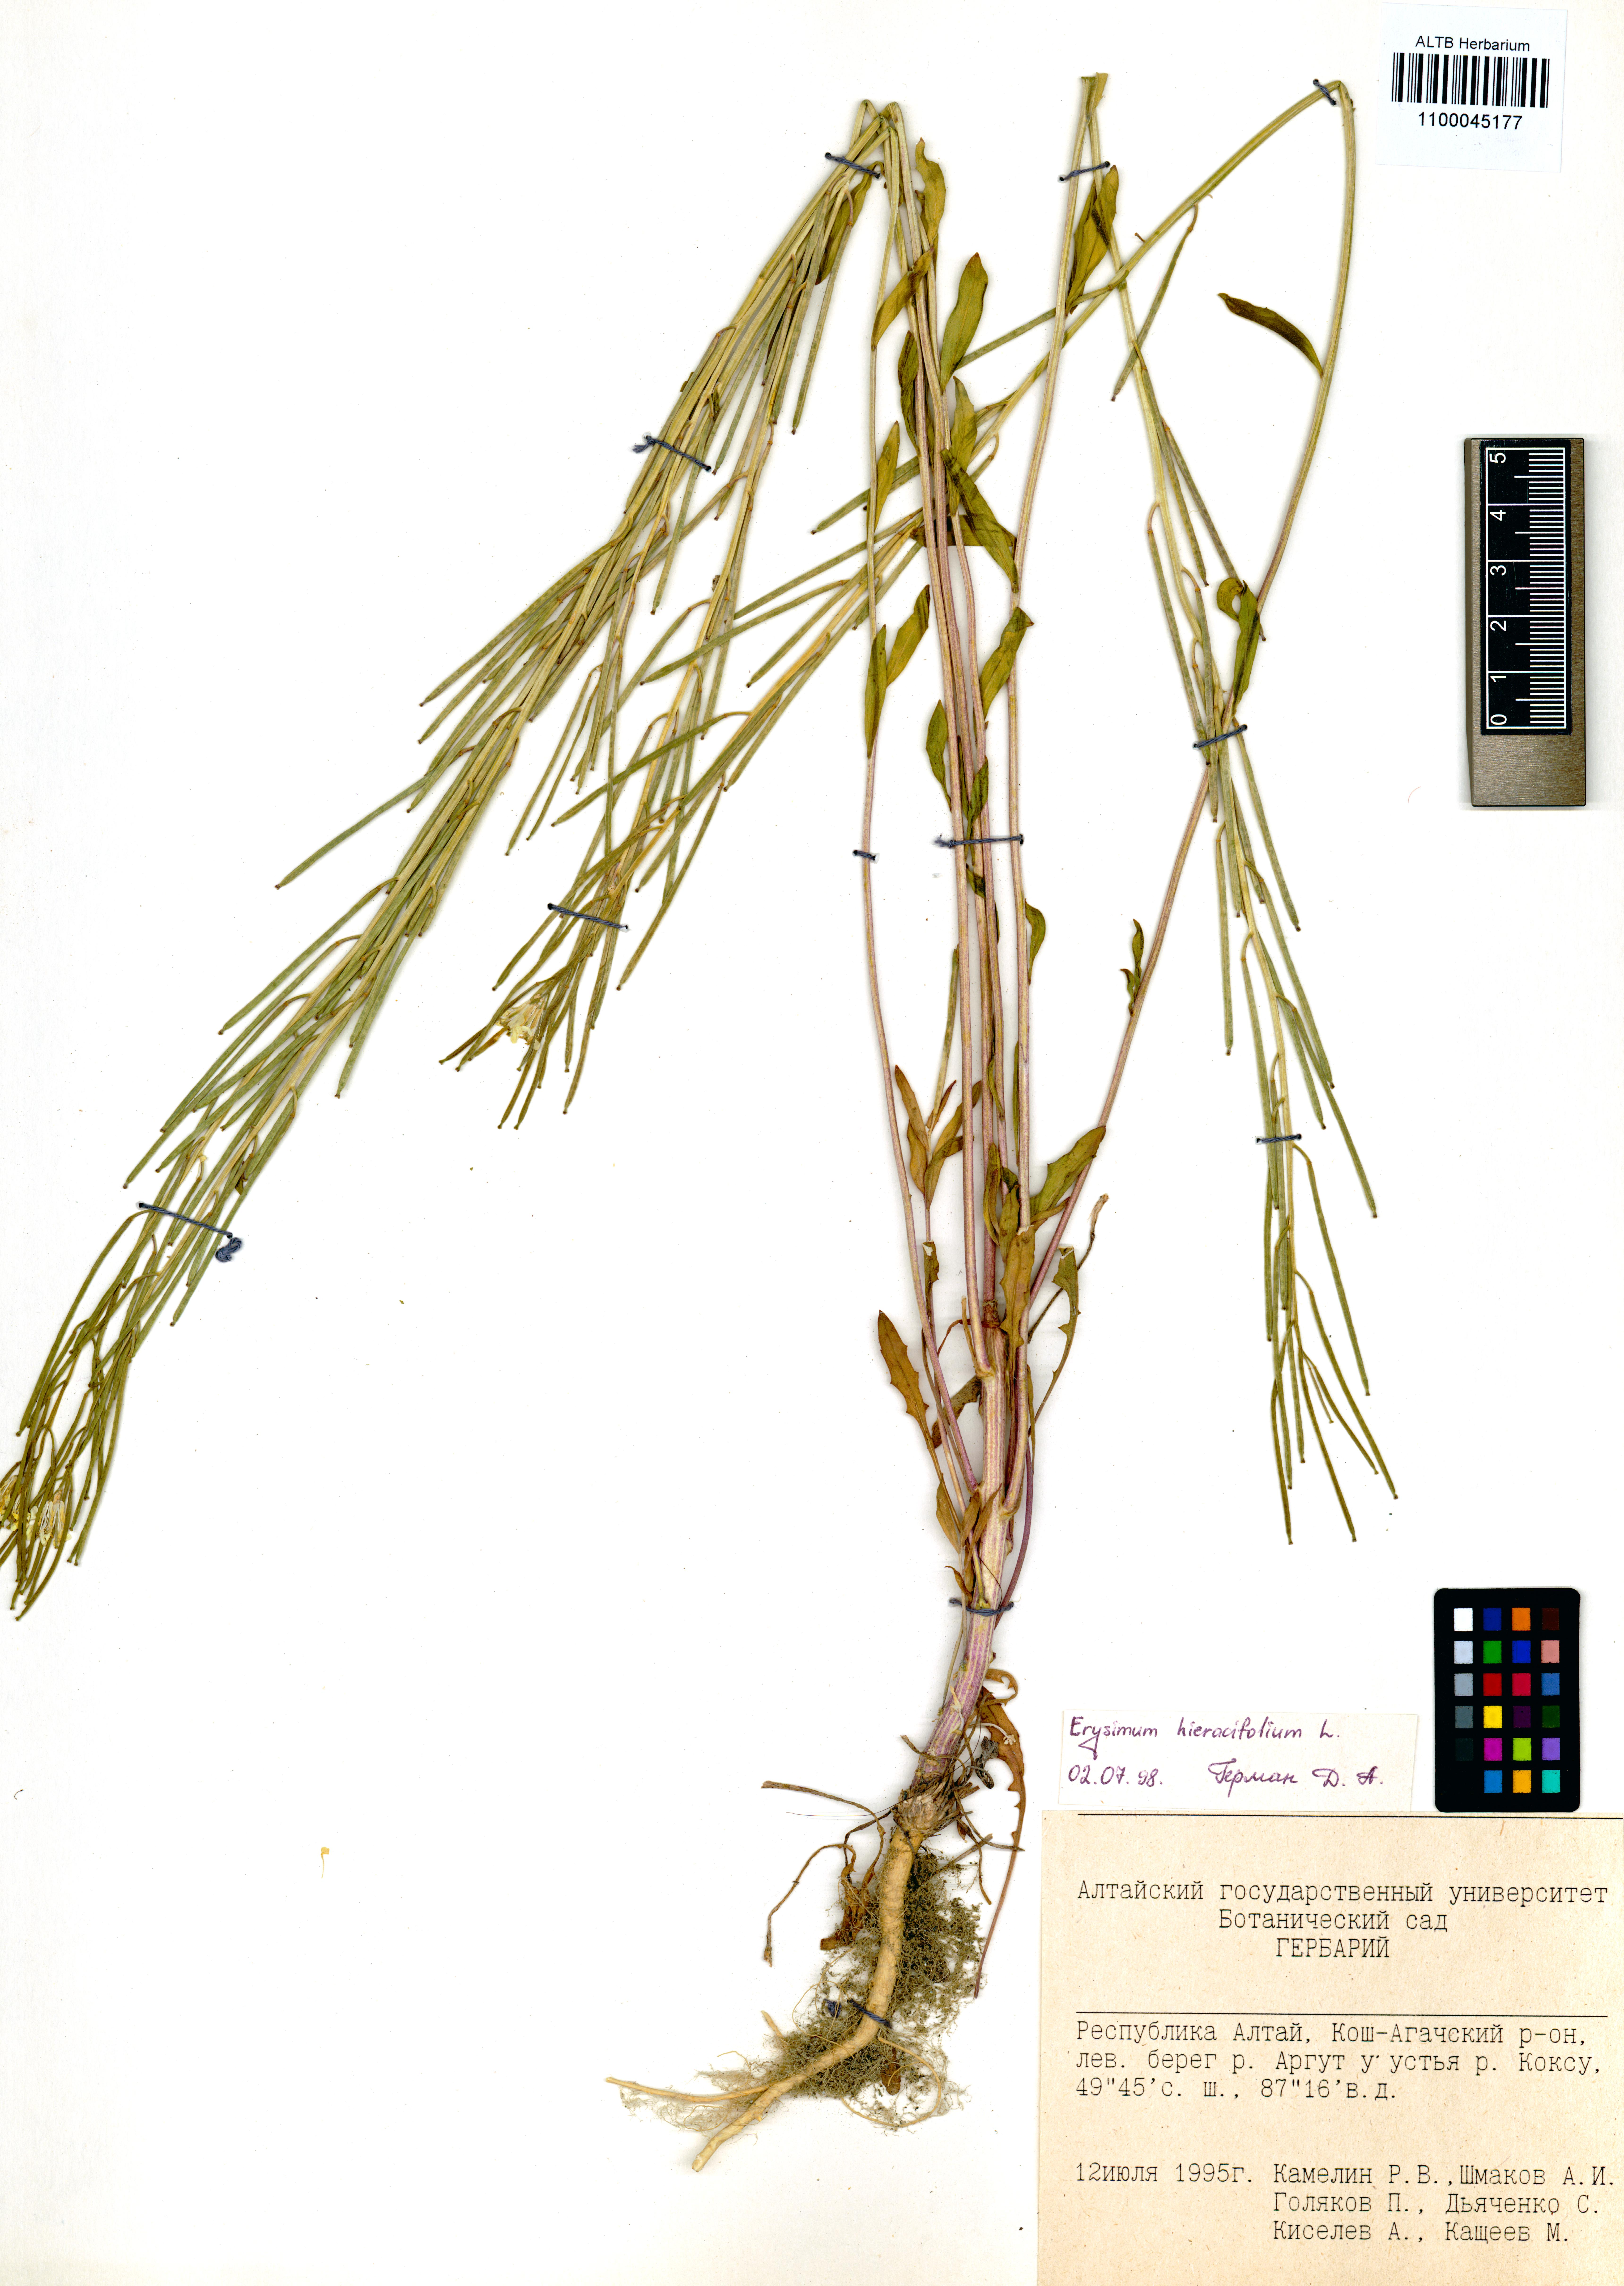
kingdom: Plantae
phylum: Tracheophyta
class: Magnoliopsida
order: Brassicales
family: Brassicaceae
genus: Erysimum
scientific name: Erysimum hieraciifolium
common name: European wallflower
